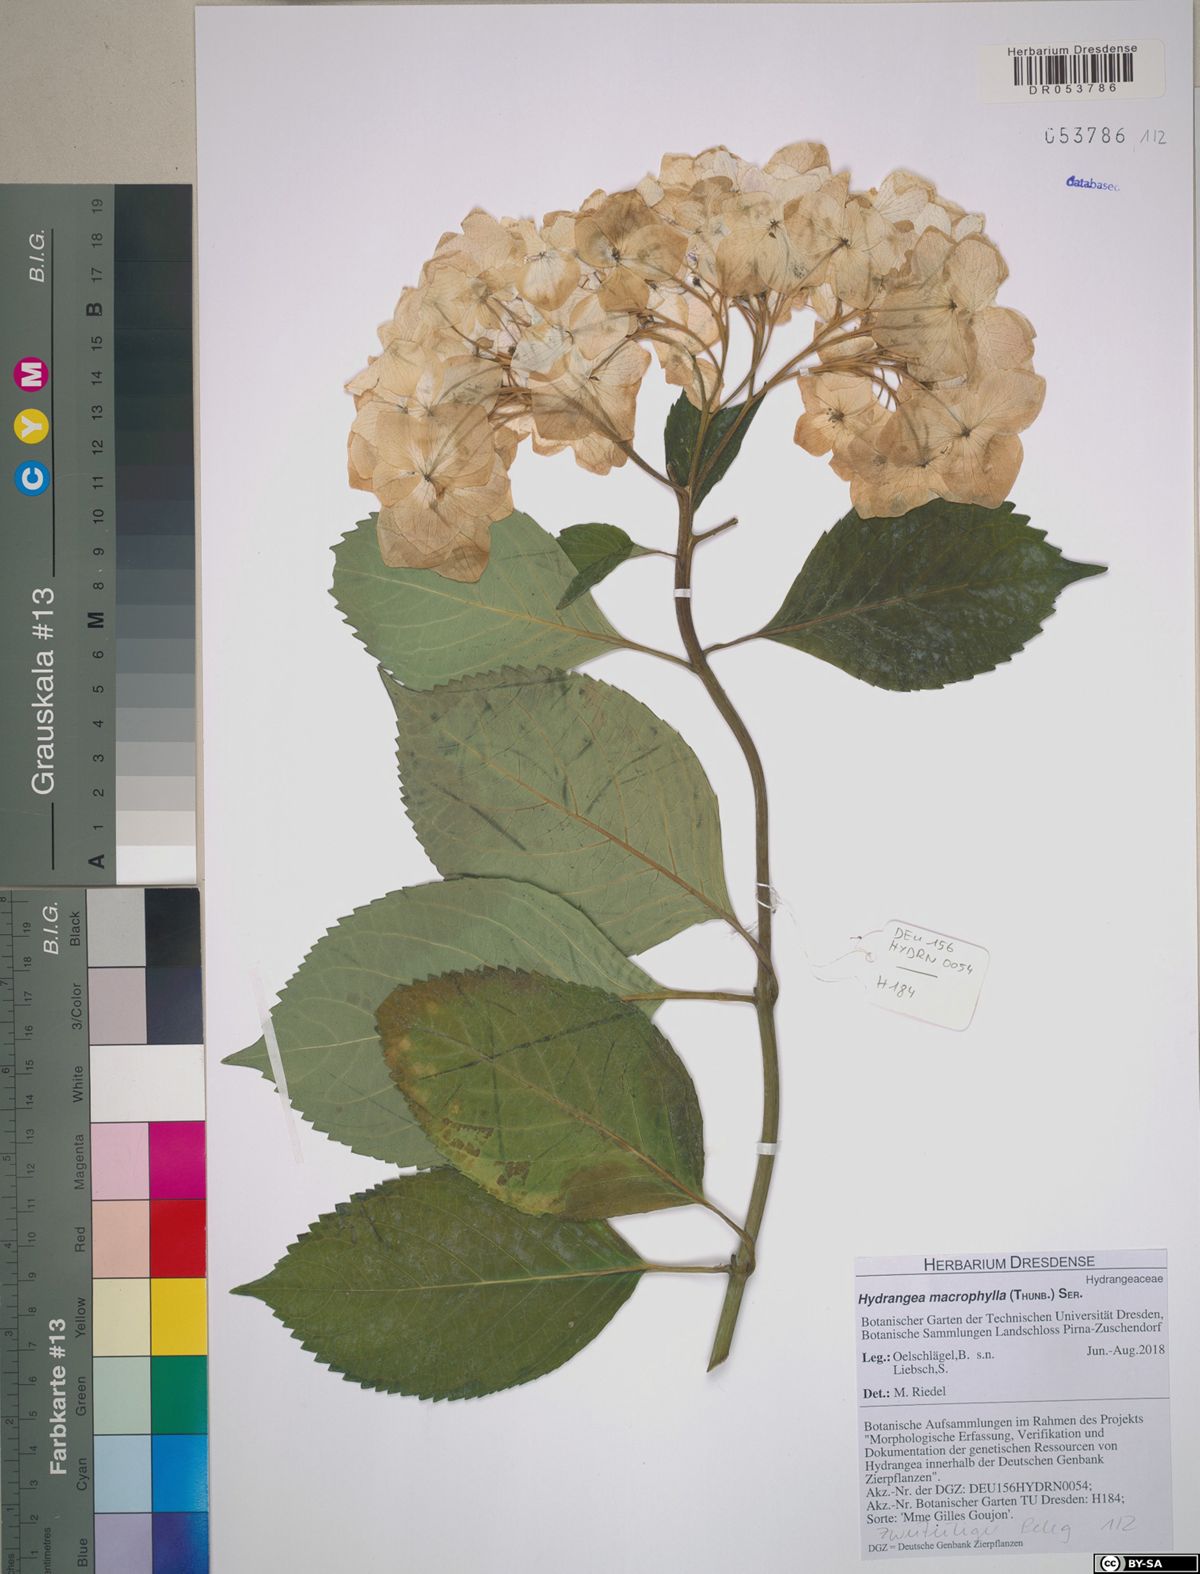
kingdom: Plantae
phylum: Tracheophyta
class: Magnoliopsida
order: Cornales
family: Hydrangeaceae
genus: Hydrangea
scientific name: Hydrangea macrophylla
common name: Hydrangea
